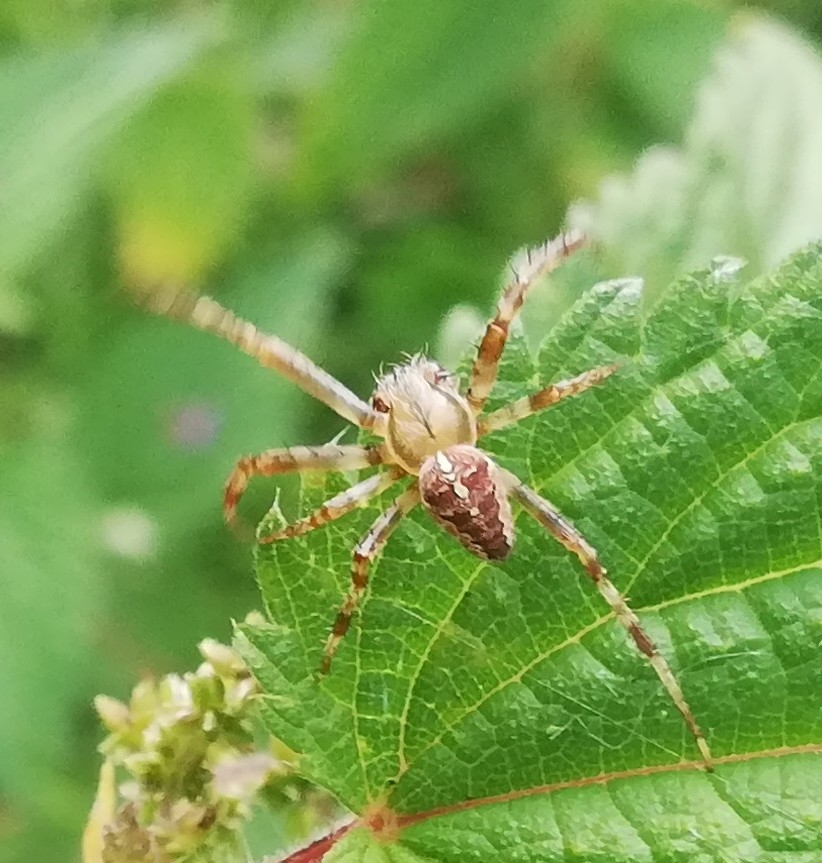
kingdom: Animalia
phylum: Arthropoda
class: Arachnida
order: Araneae
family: Araneidae
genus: Araneus
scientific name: Araneus diadematus
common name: Korsedderkop
